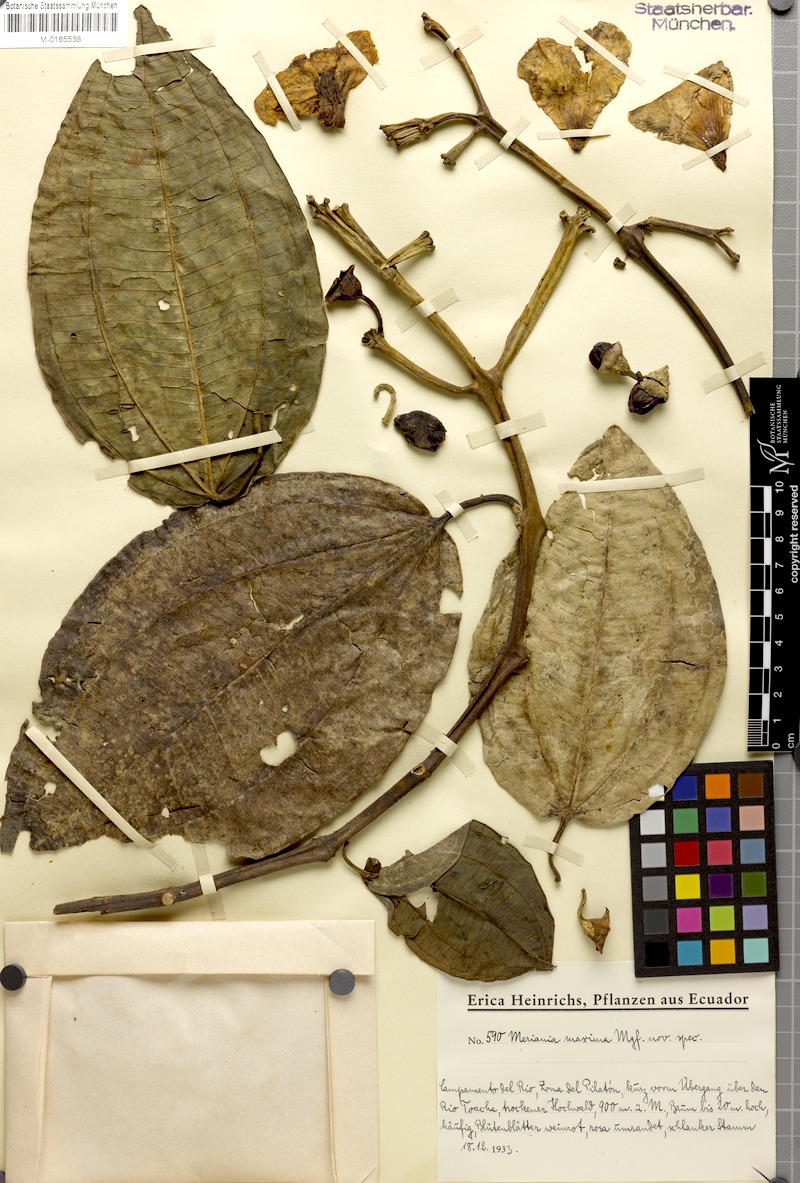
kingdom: Plantae
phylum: Tracheophyta
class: Magnoliopsida
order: Myrtales
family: Melastomataceae
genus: Meriania
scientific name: Meriania maxima
